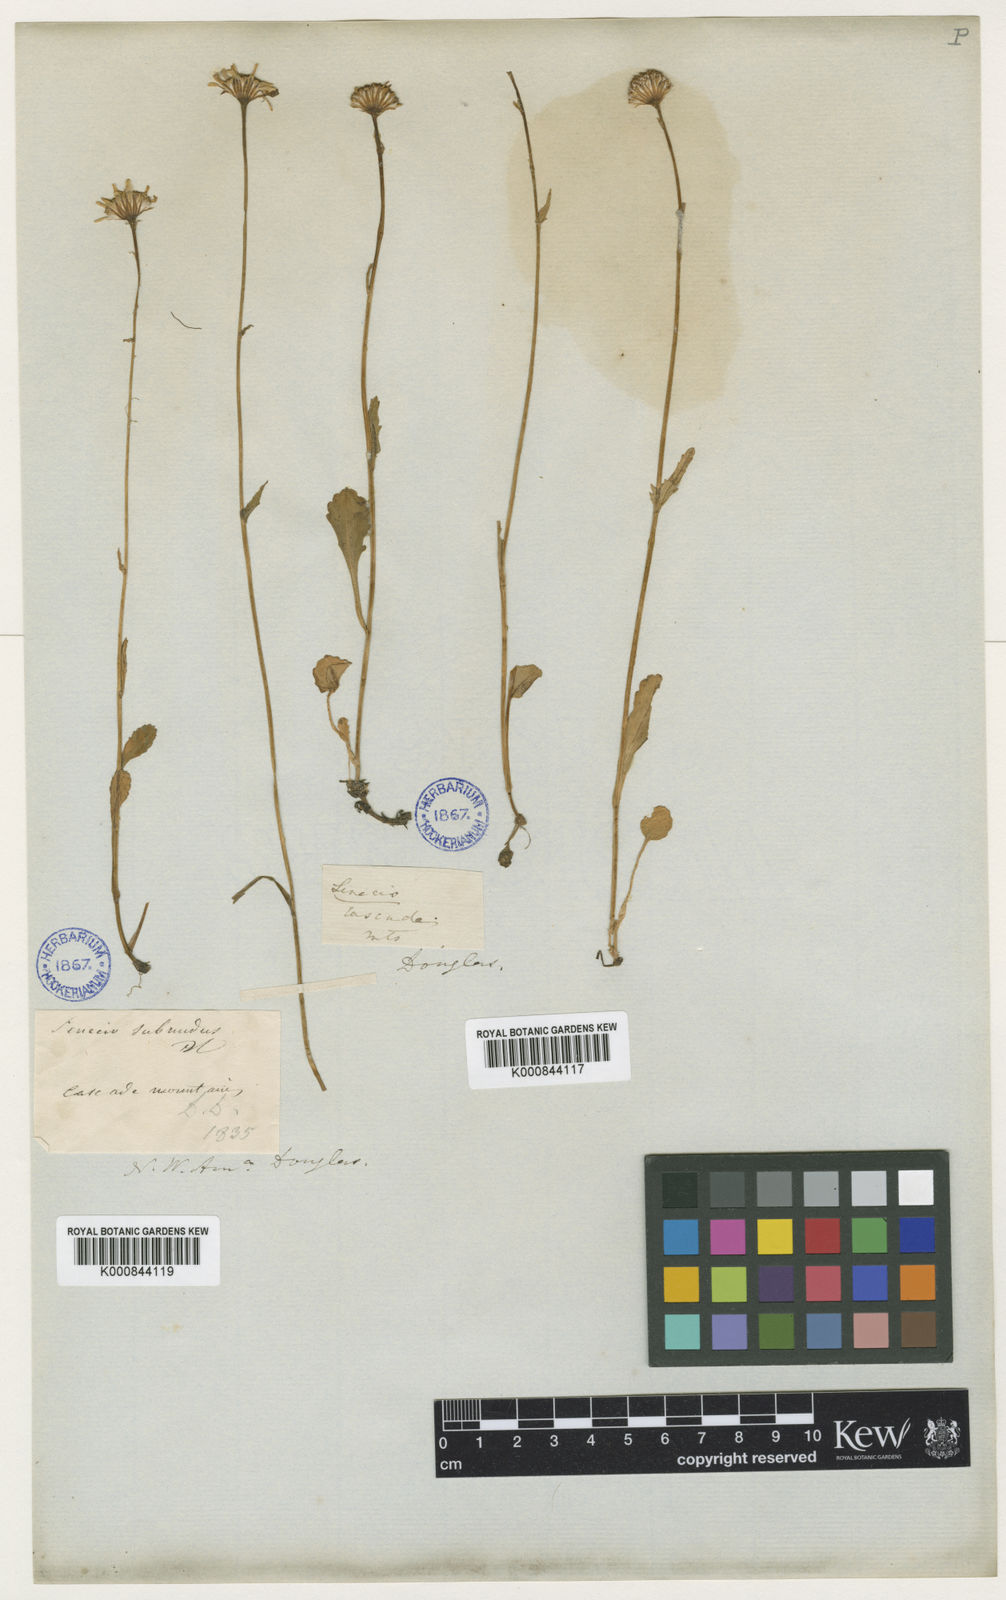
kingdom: Plantae
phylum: Tracheophyta
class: Magnoliopsida
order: Asterales
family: Asteraceae
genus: Packera
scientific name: Packera
